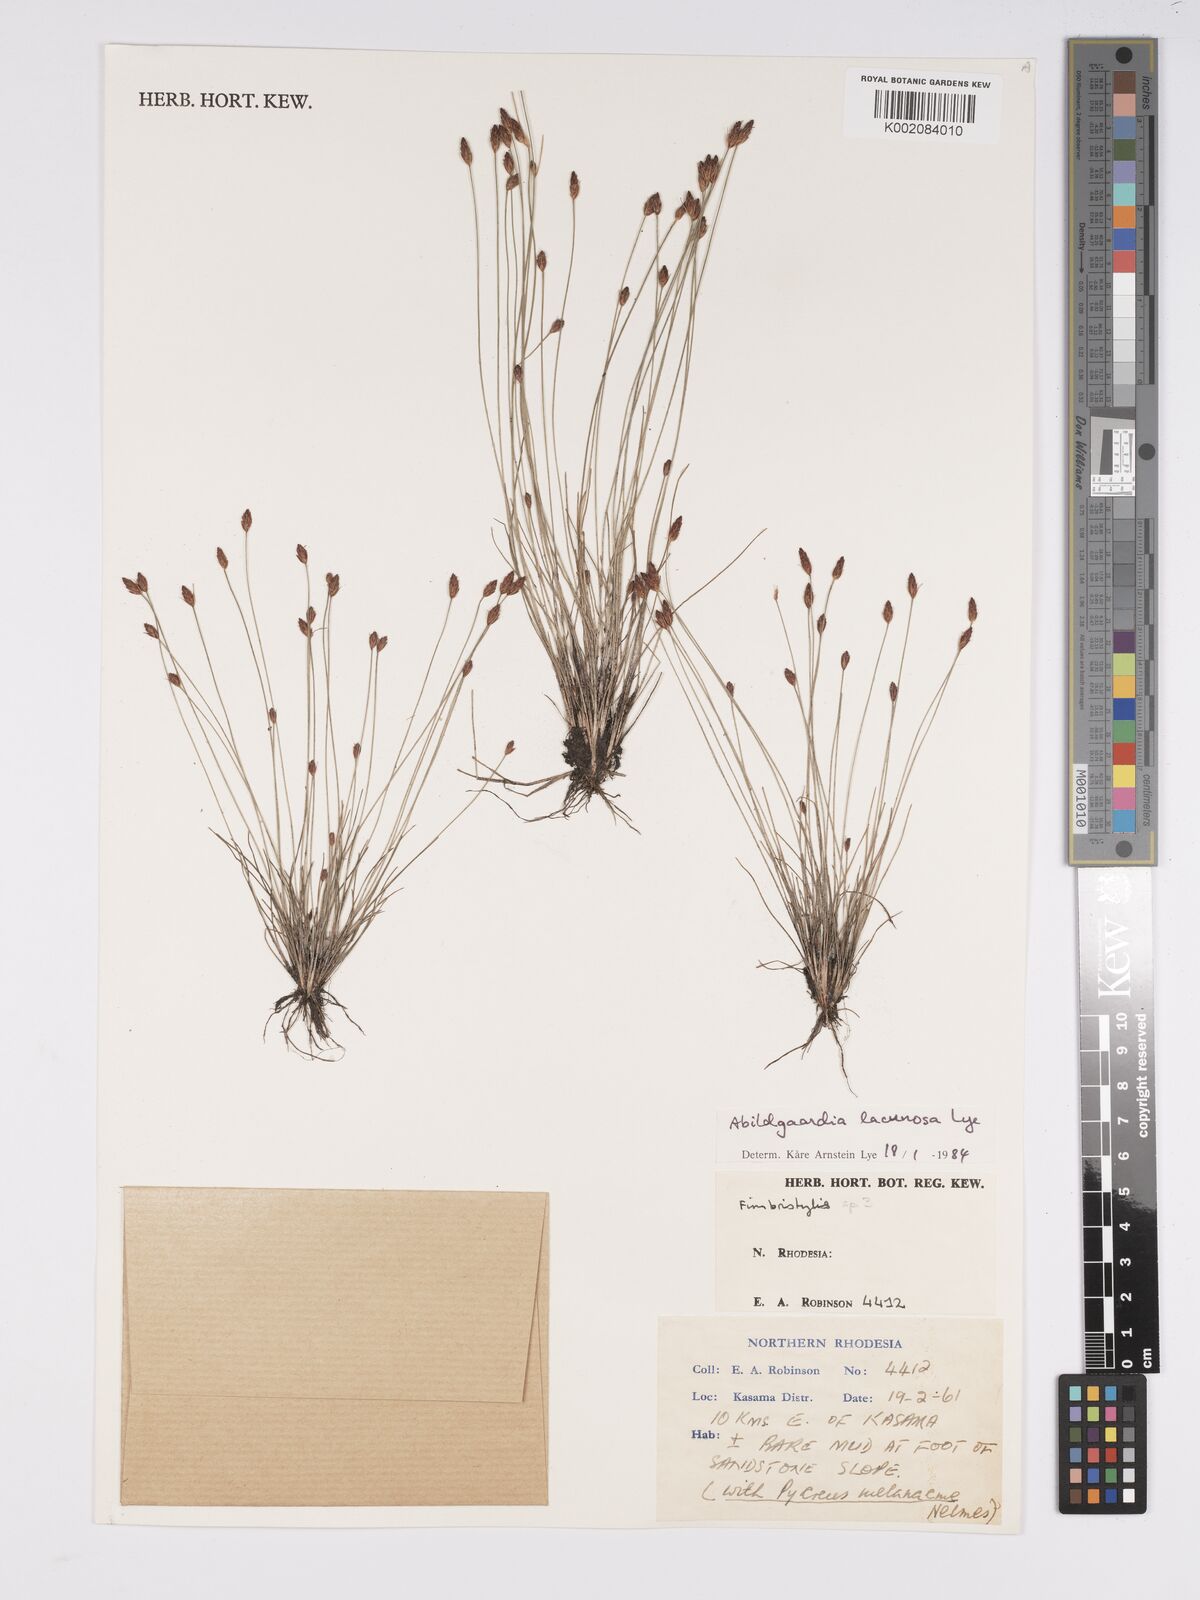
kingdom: Plantae
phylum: Tracheophyta
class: Liliopsida
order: Poales
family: Cyperaceae
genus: Bulbostylis
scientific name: Bulbostylis lacunosa
